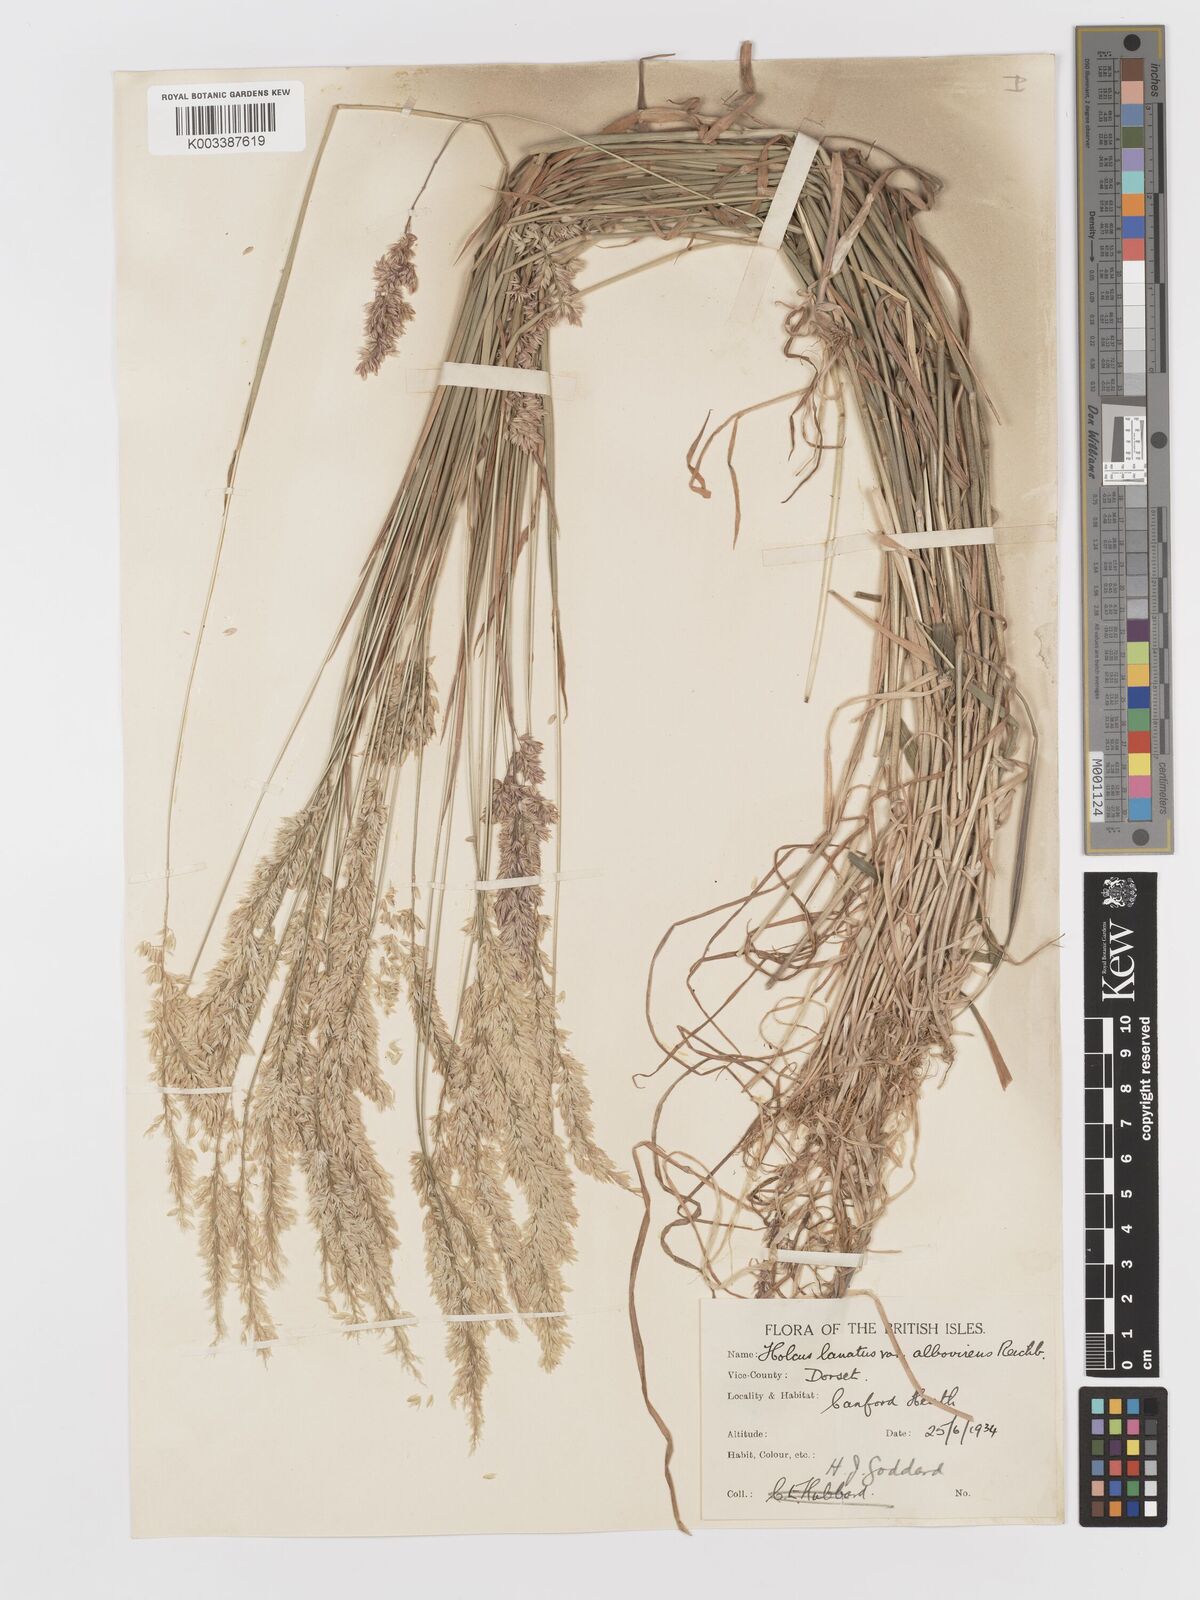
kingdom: Plantae
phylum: Tracheophyta
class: Liliopsida
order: Poales
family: Poaceae
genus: Holcus
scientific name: Holcus lanatus
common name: Yorkshire-fog
